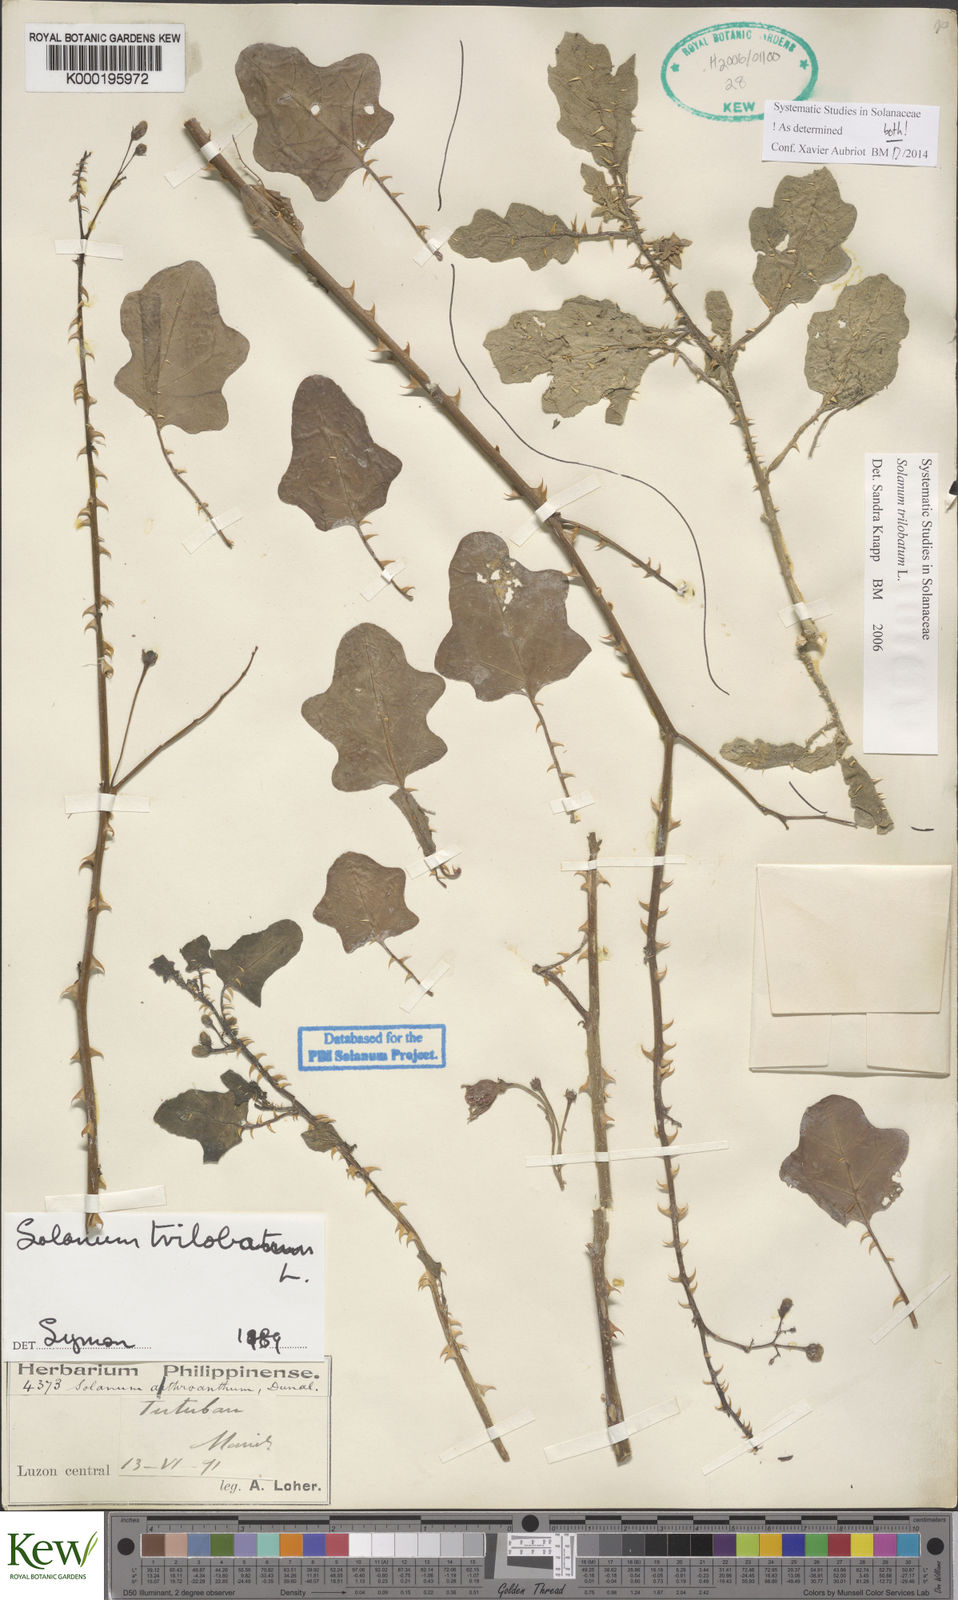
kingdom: Plantae
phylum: Tracheophyta
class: Magnoliopsida
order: Solanales
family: Solanaceae
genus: Solanum
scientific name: Solanum insanum
